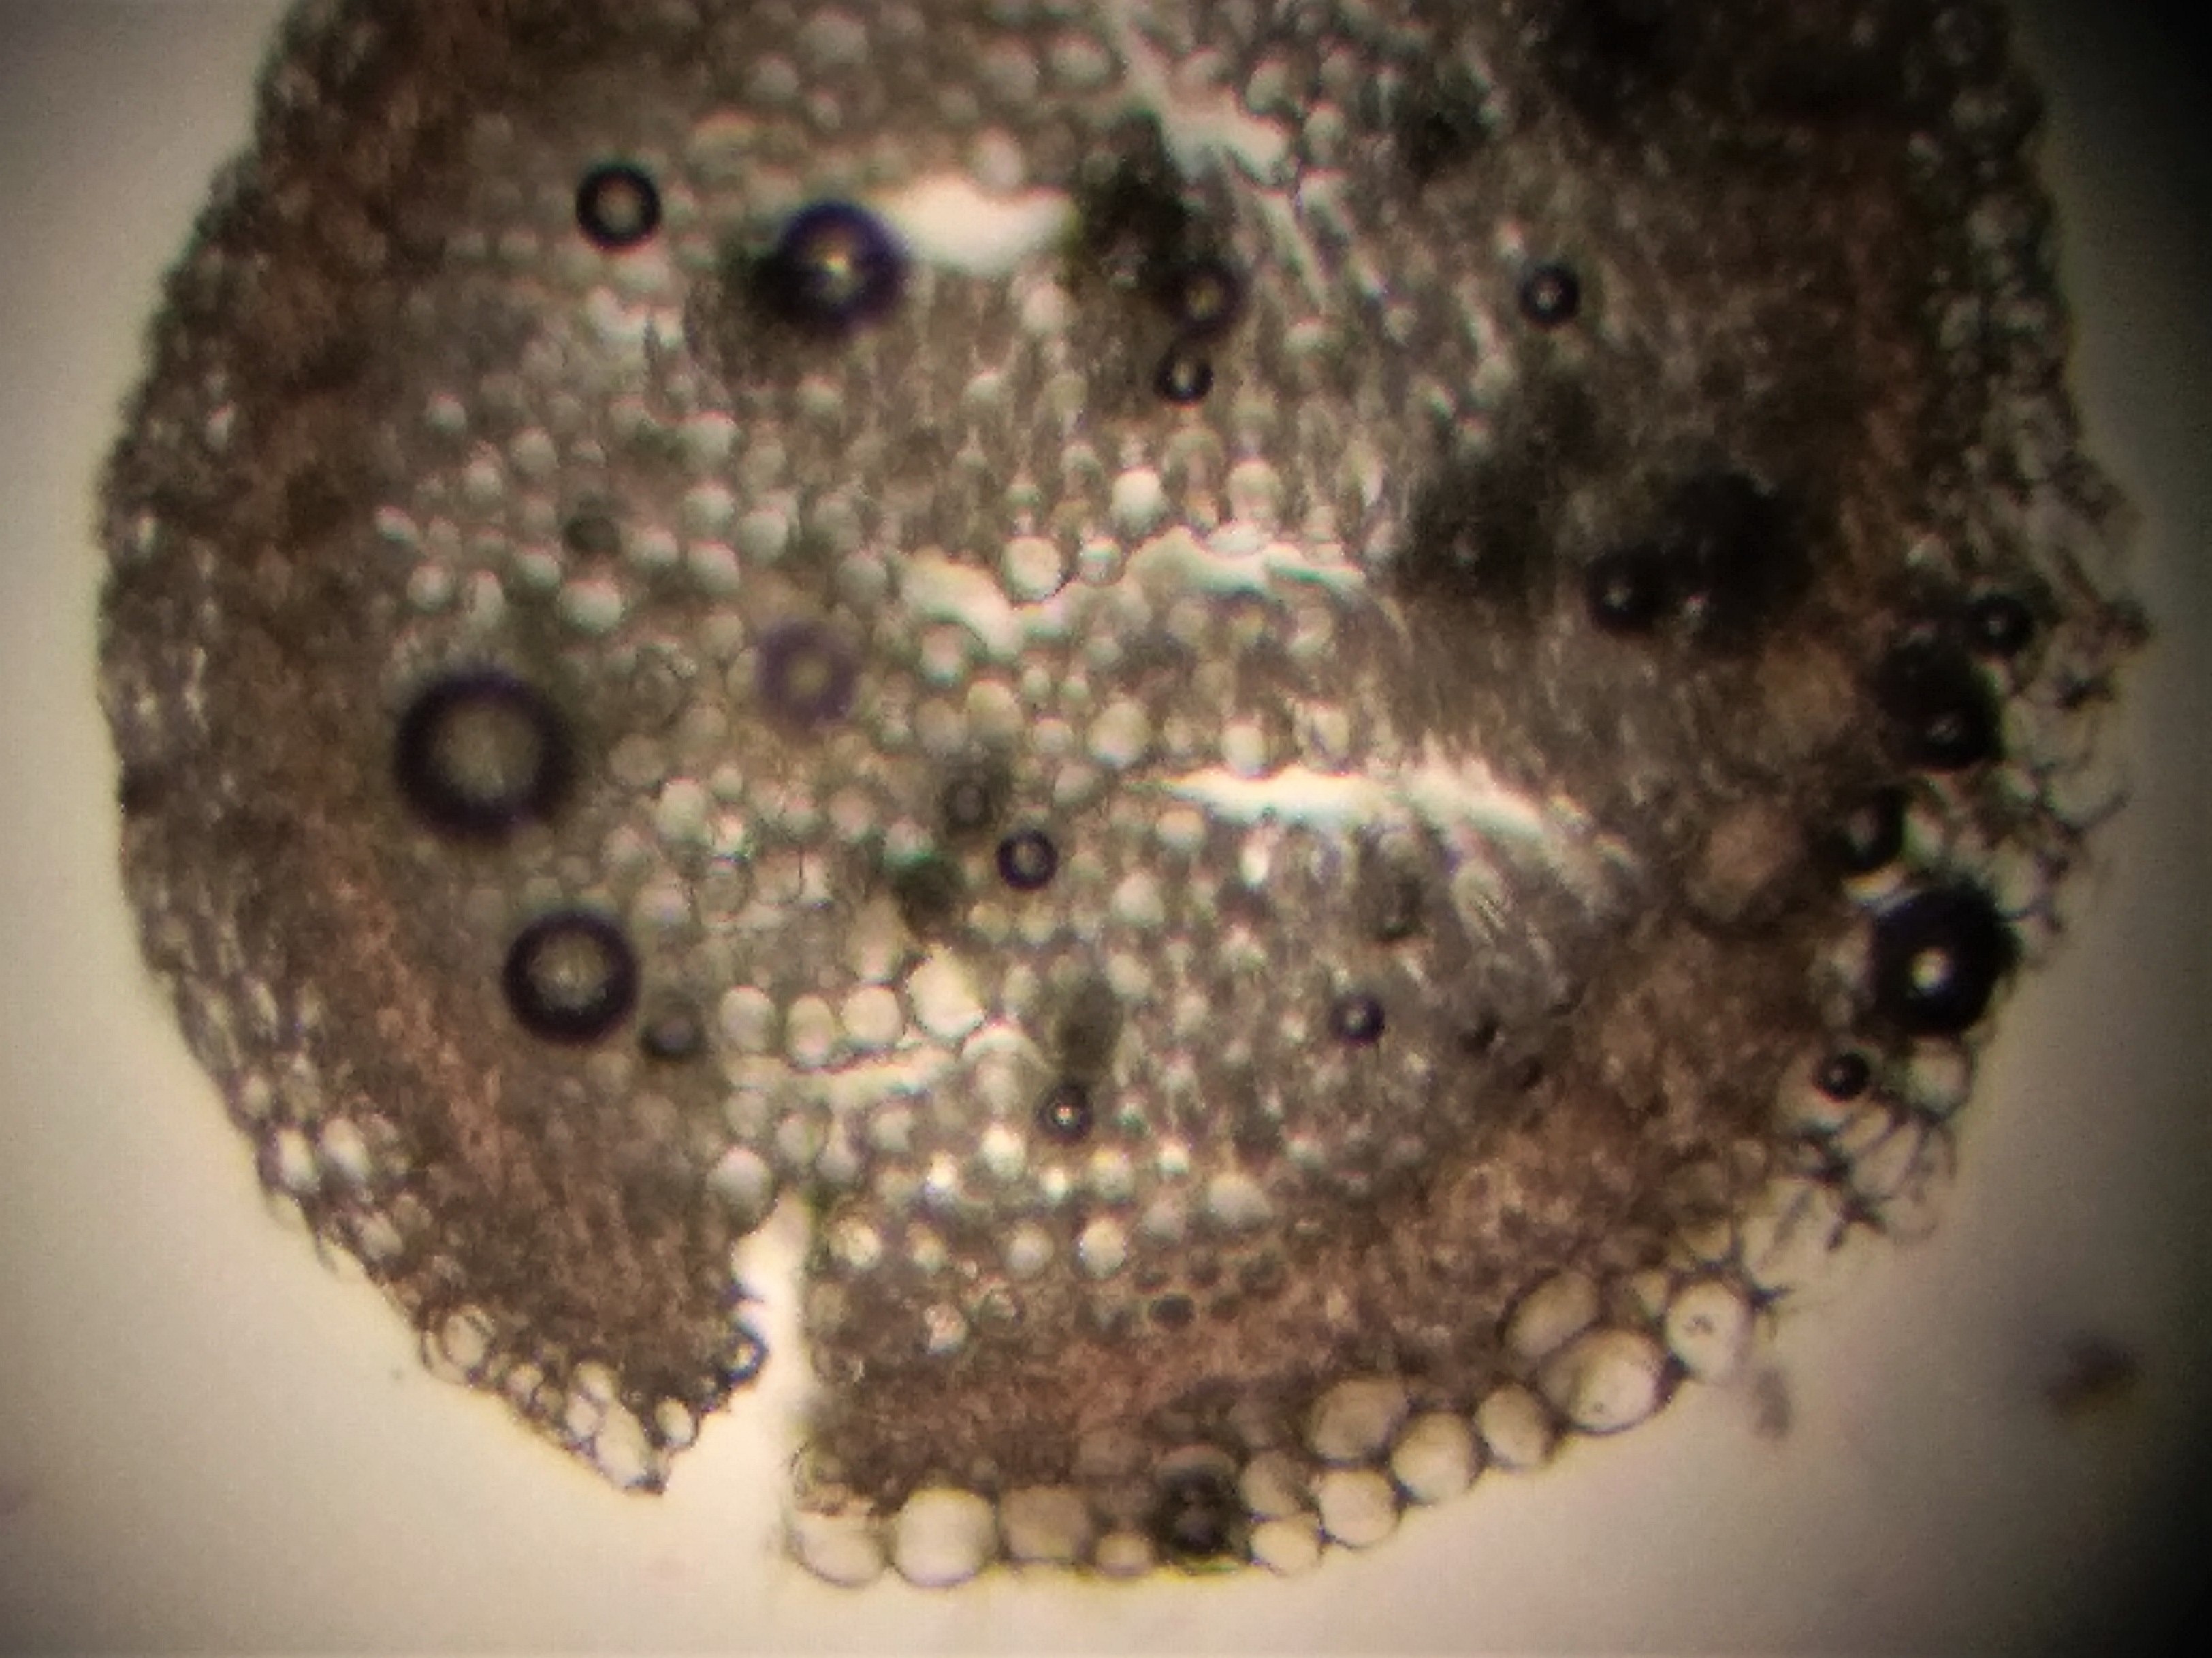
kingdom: Plantae
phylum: Bryophyta
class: Sphagnopsida
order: Sphagnales
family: Sphagnaceae
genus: Sphagnum
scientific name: Sphagnum contortum
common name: Krumbladet tørvemos
